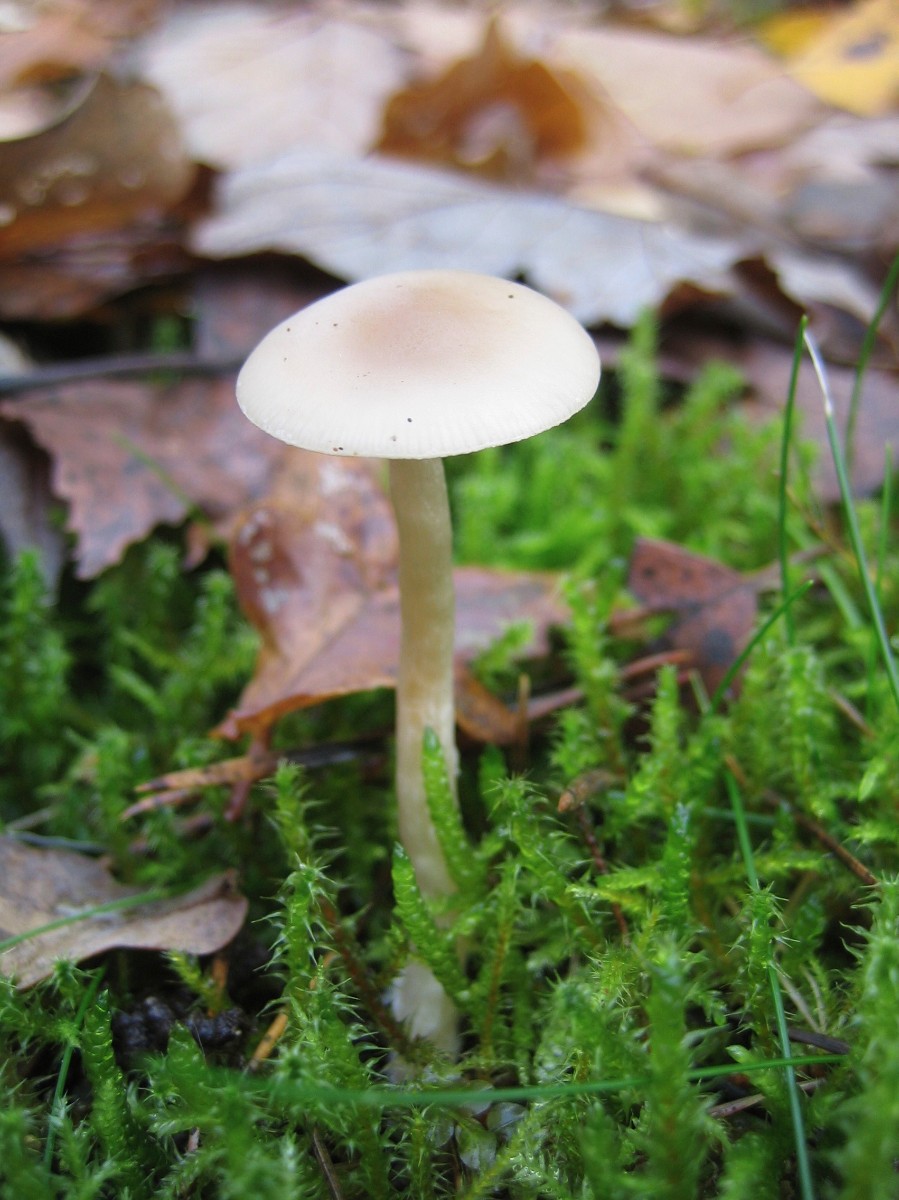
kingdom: Fungi
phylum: Basidiomycota
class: Agaricomycetes
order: Agaricales
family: Tricholomataceae
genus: Clitocybe
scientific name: Clitocybe
